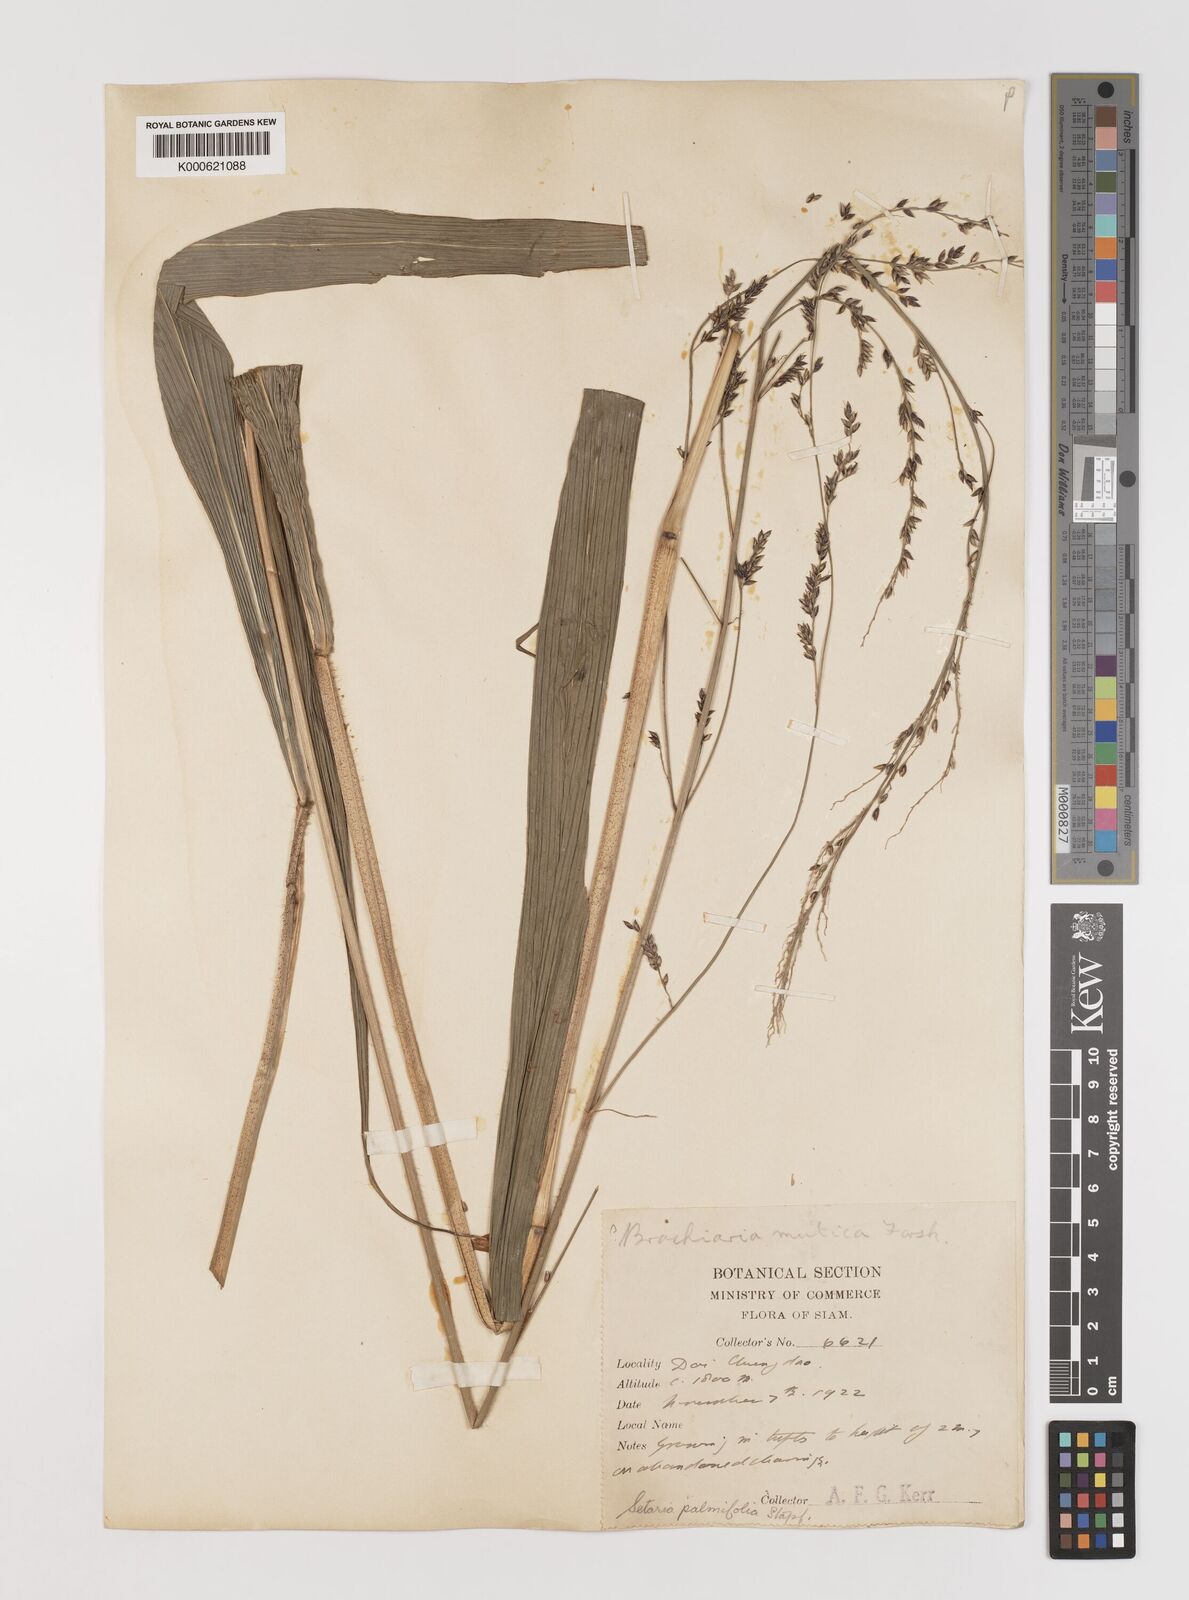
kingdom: Plantae
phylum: Tracheophyta
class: Liliopsida
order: Poales
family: Poaceae
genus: Setaria
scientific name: Setaria palmifolia
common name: Broadleaved bristlegrass
